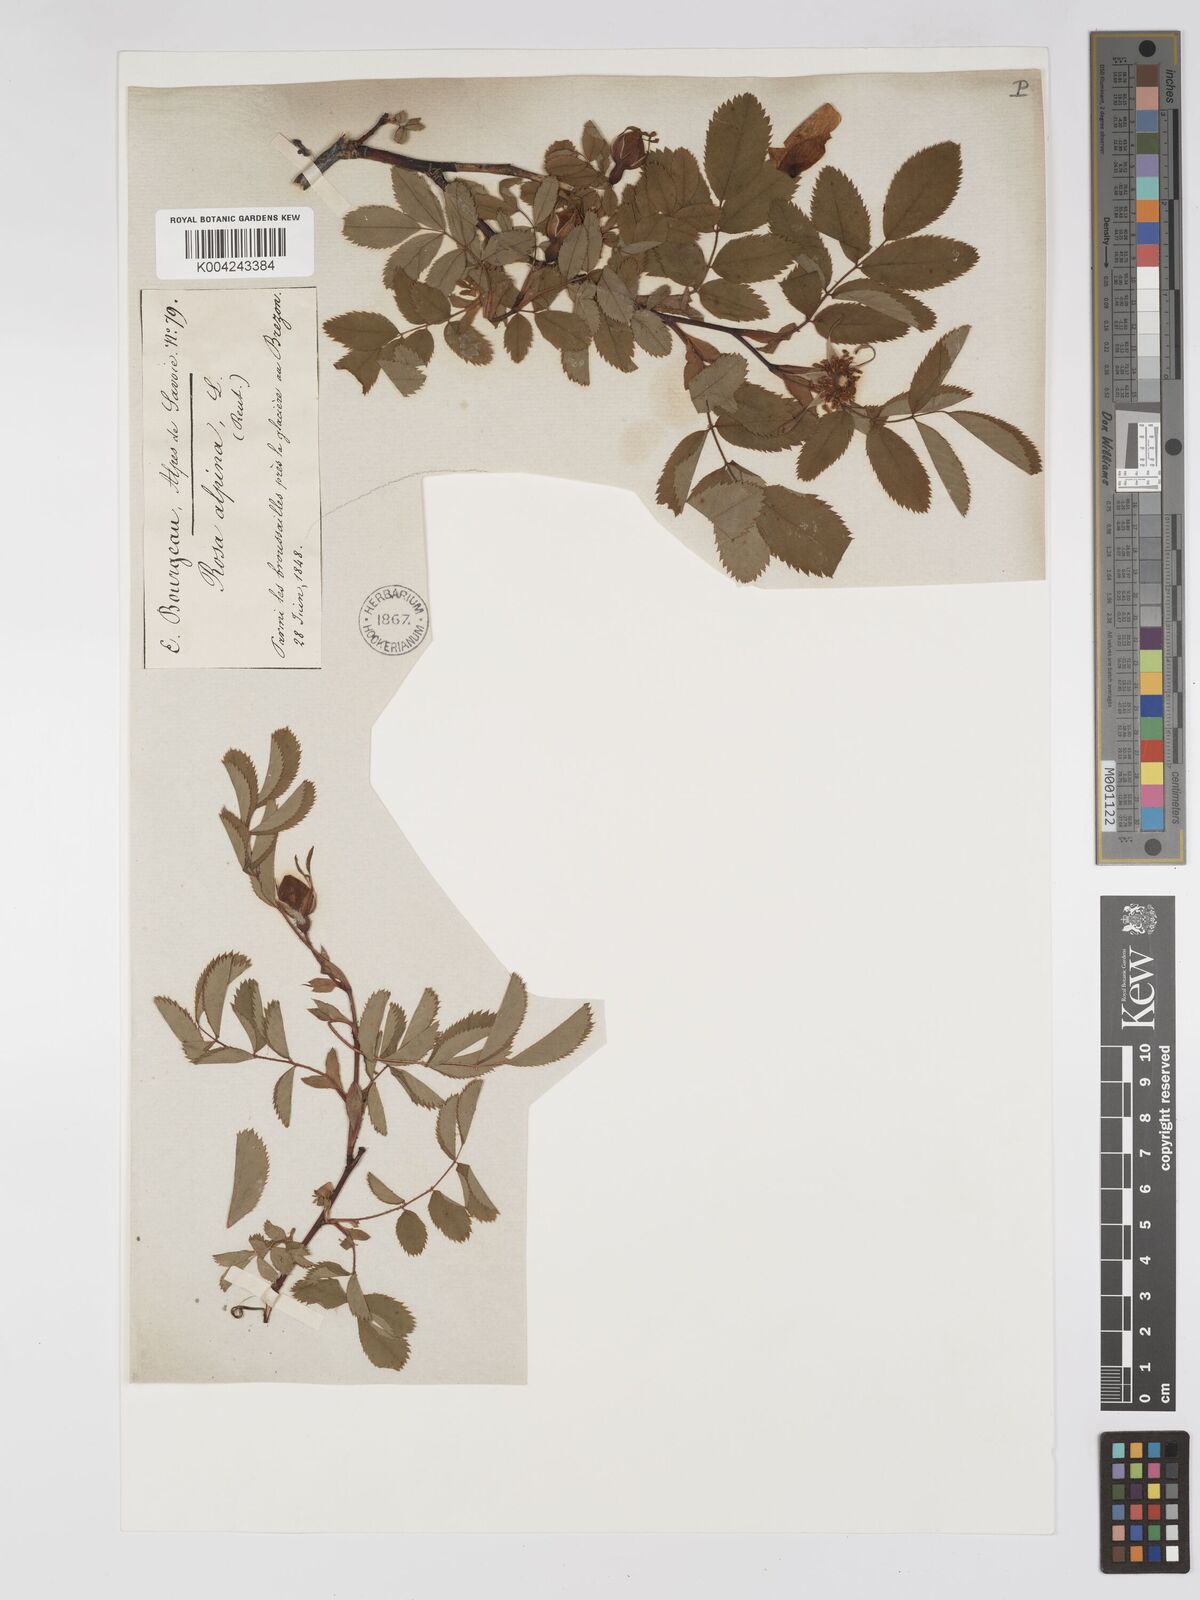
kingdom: Plantae
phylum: Tracheophyta
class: Magnoliopsida
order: Rosales
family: Rosaceae
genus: Rosa
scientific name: Rosa pendulina
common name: Alpine rose
